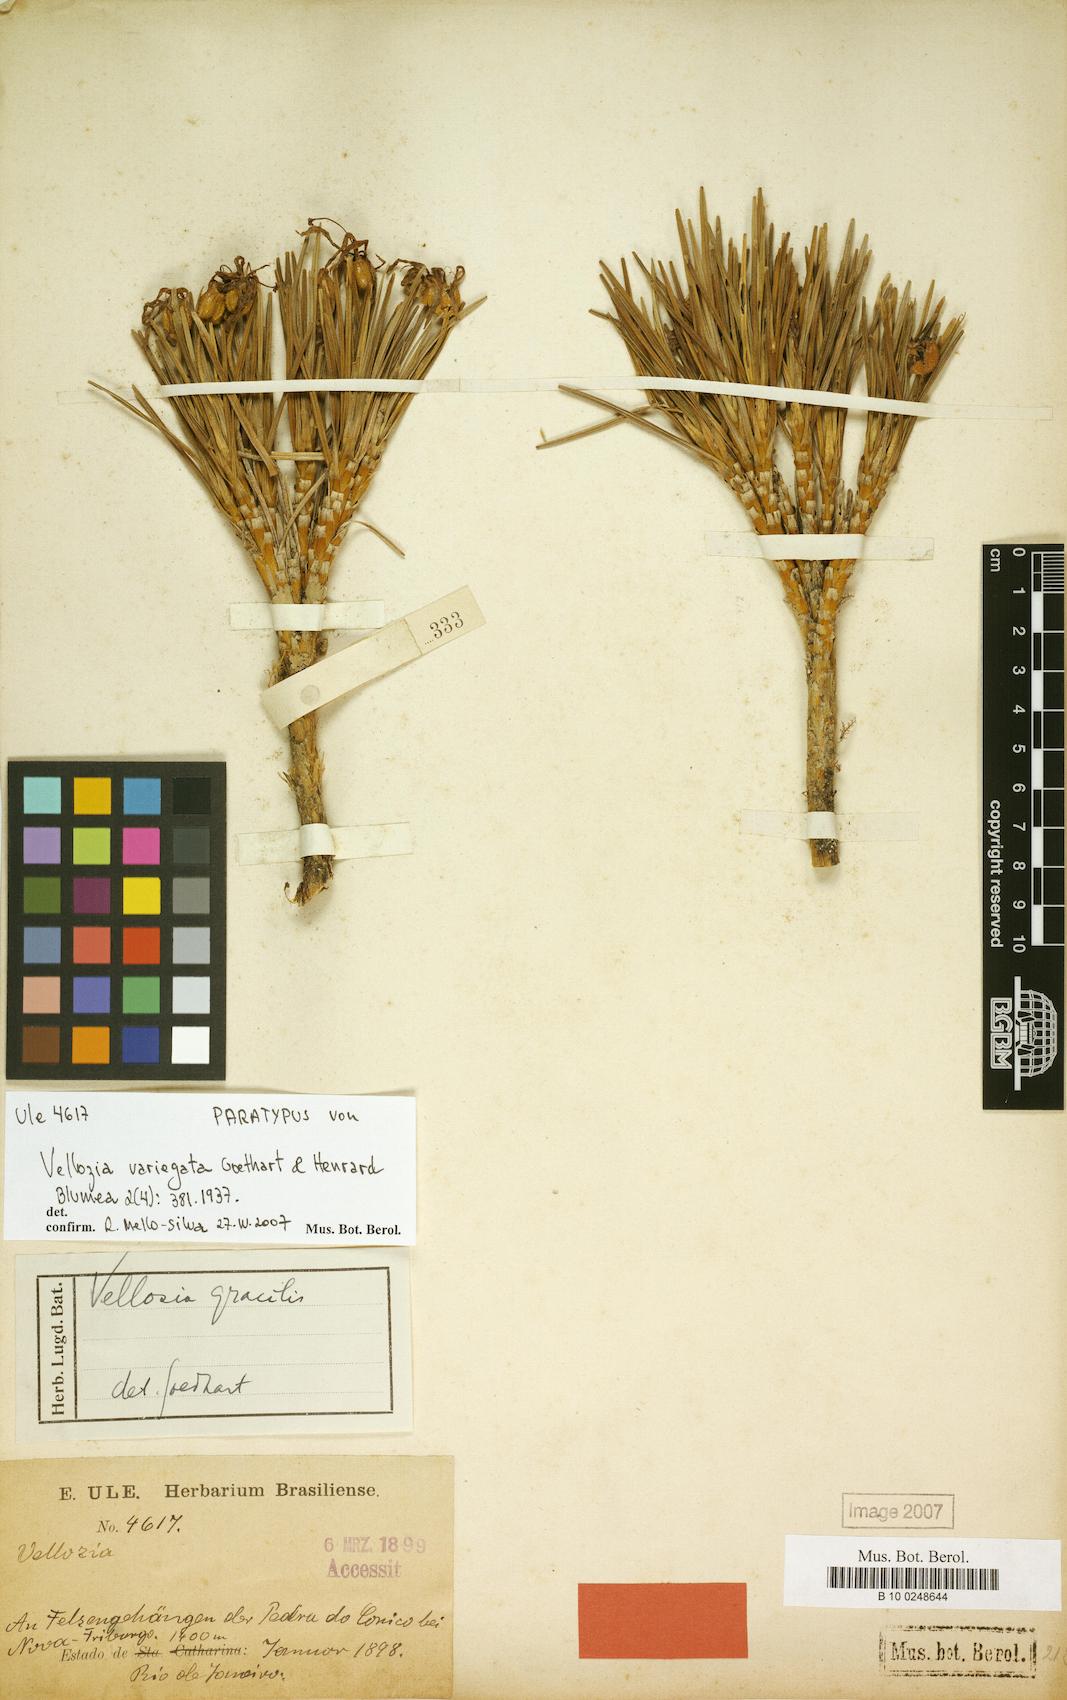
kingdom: Plantae
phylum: Tracheophyta
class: Liliopsida
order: Pandanales
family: Velloziaceae
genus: Vellozia
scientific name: Vellozia variegata
